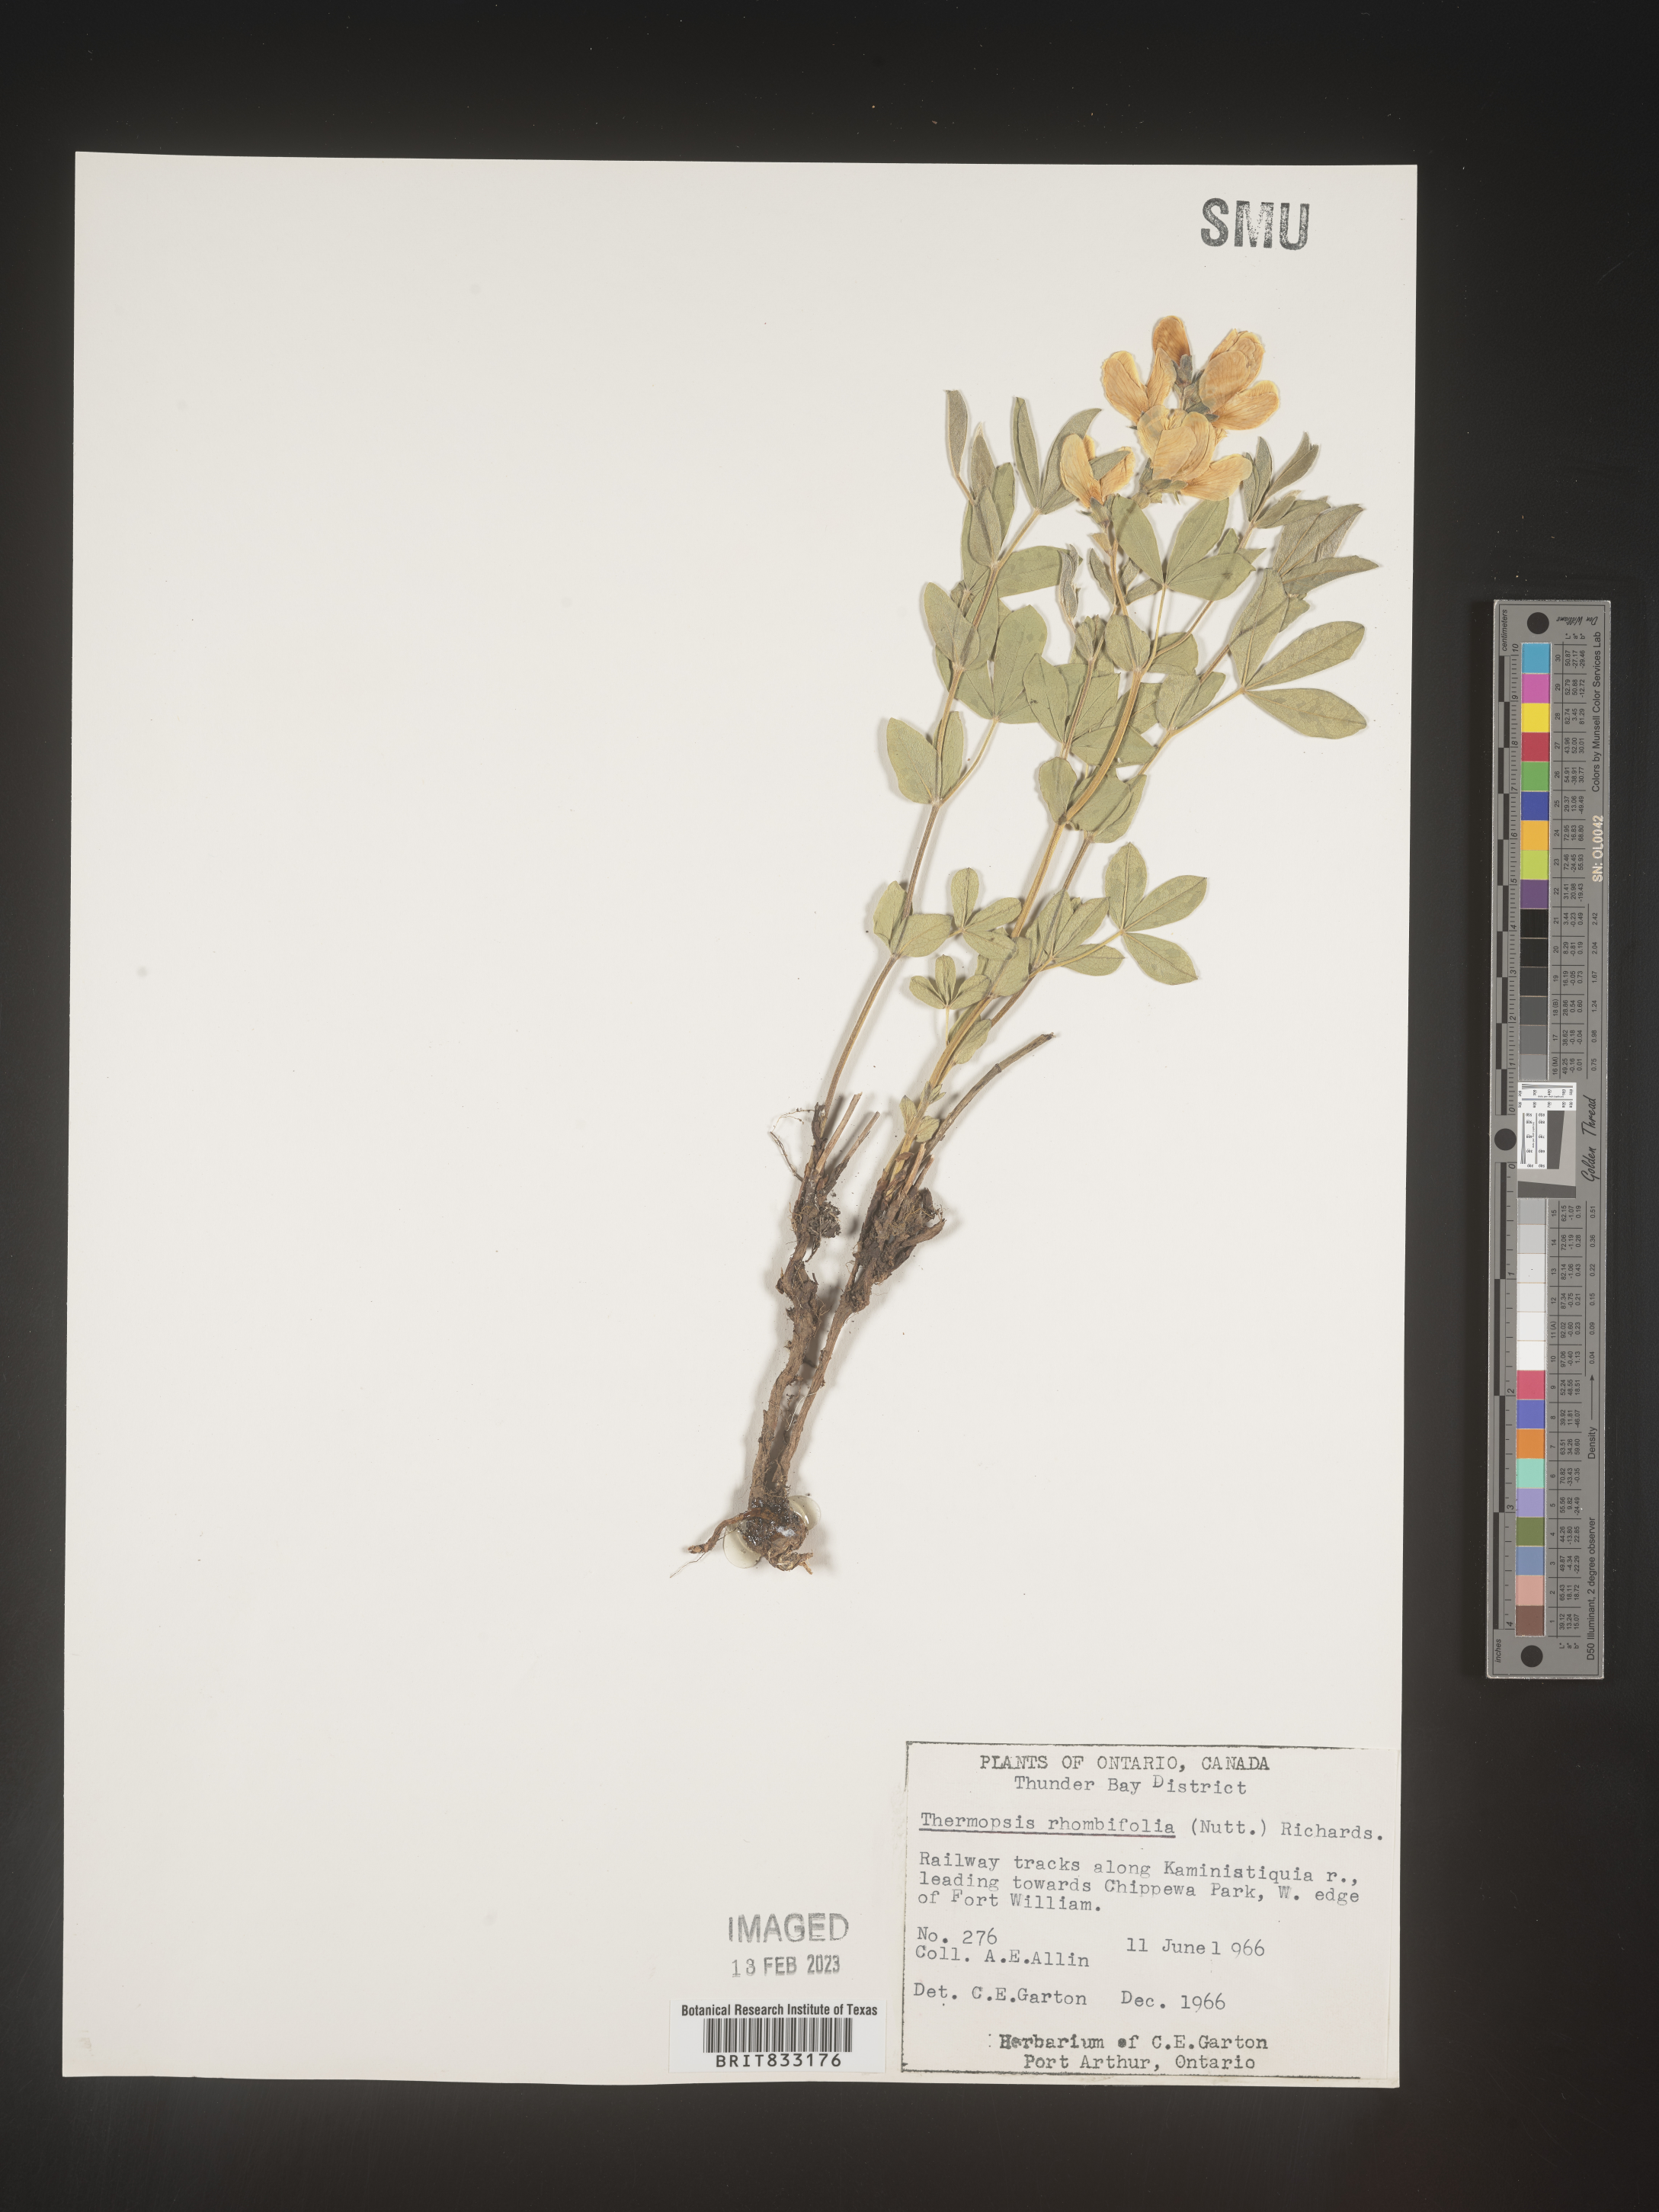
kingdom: Plantae
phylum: Tracheophyta
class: Magnoliopsida
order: Fabales
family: Fabaceae
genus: Thermopsis
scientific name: Thermopsis rhombifolia
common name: Circle-pod-pea
